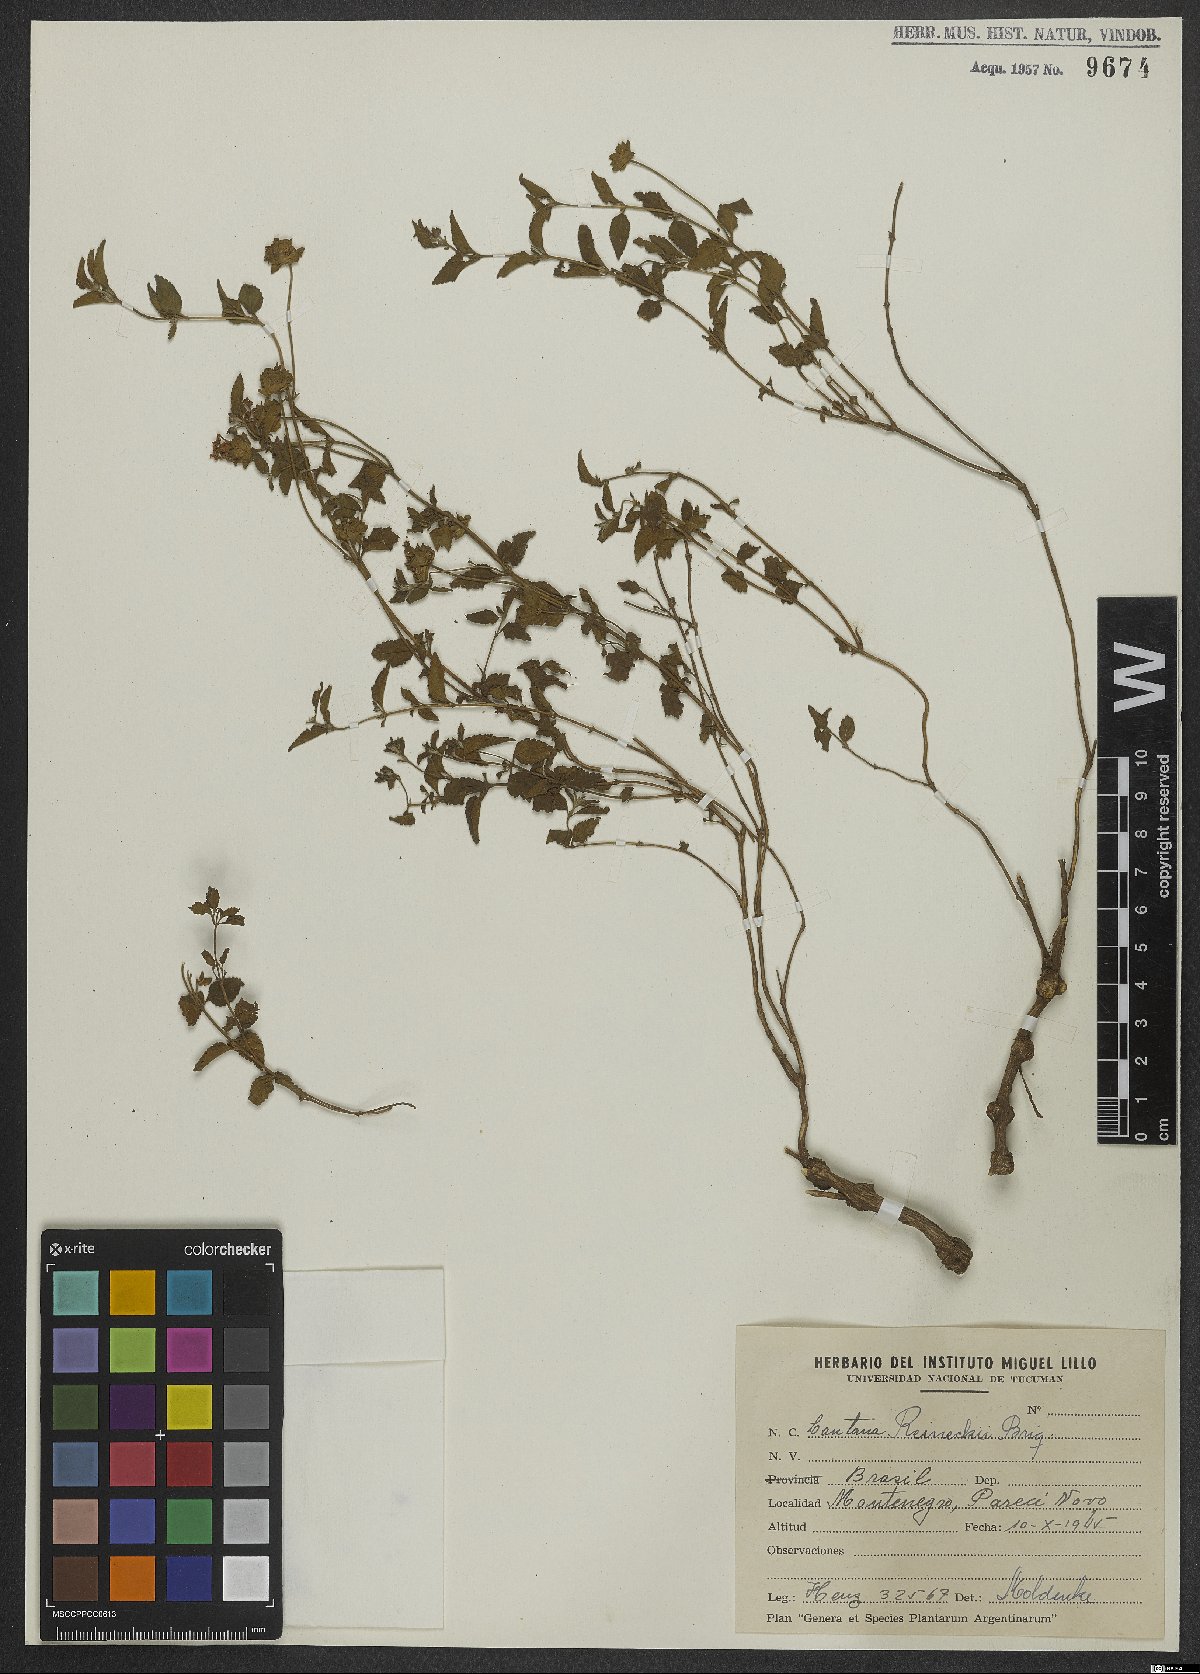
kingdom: Plantae
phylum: Tracheophyta
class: Magnoliopsida
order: Lamiales
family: Verbenaceae
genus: Lantana
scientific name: Lantana reineckii
